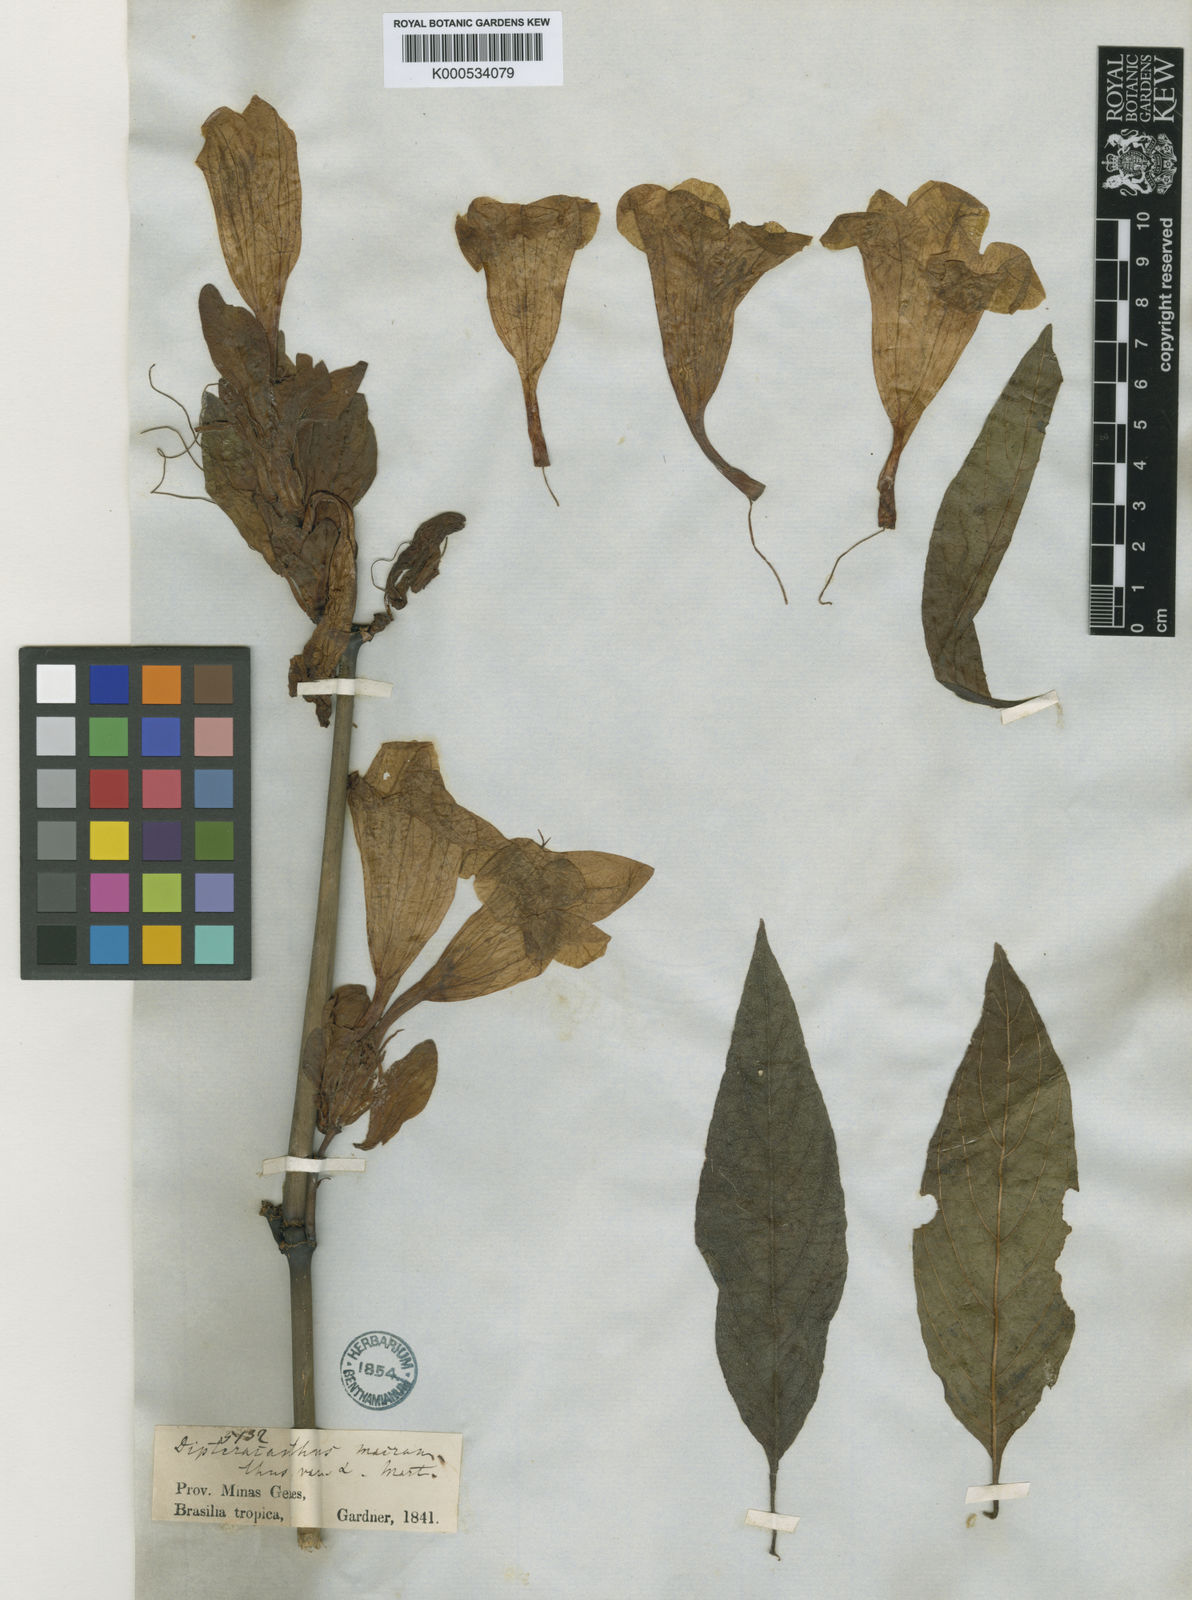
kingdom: Plantae
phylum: Tracheophyta
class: Magnoliopsida
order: Lamiales
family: Acanthaceae
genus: Ruellia
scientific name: Ruellia
